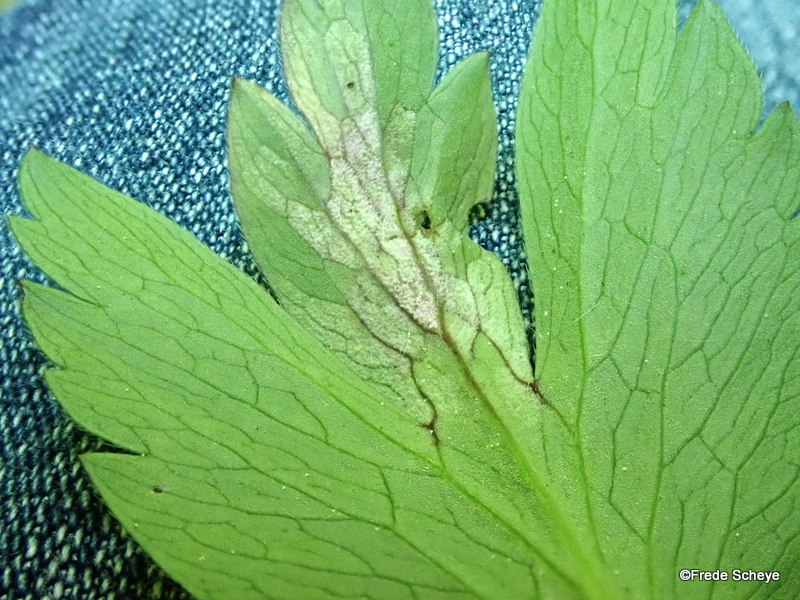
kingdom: Chromista
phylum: Oomycota
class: Peronosporea
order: Peronosporales
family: Peronosporaceae
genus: Plasmoverna
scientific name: Plasmoverna pygmaea
